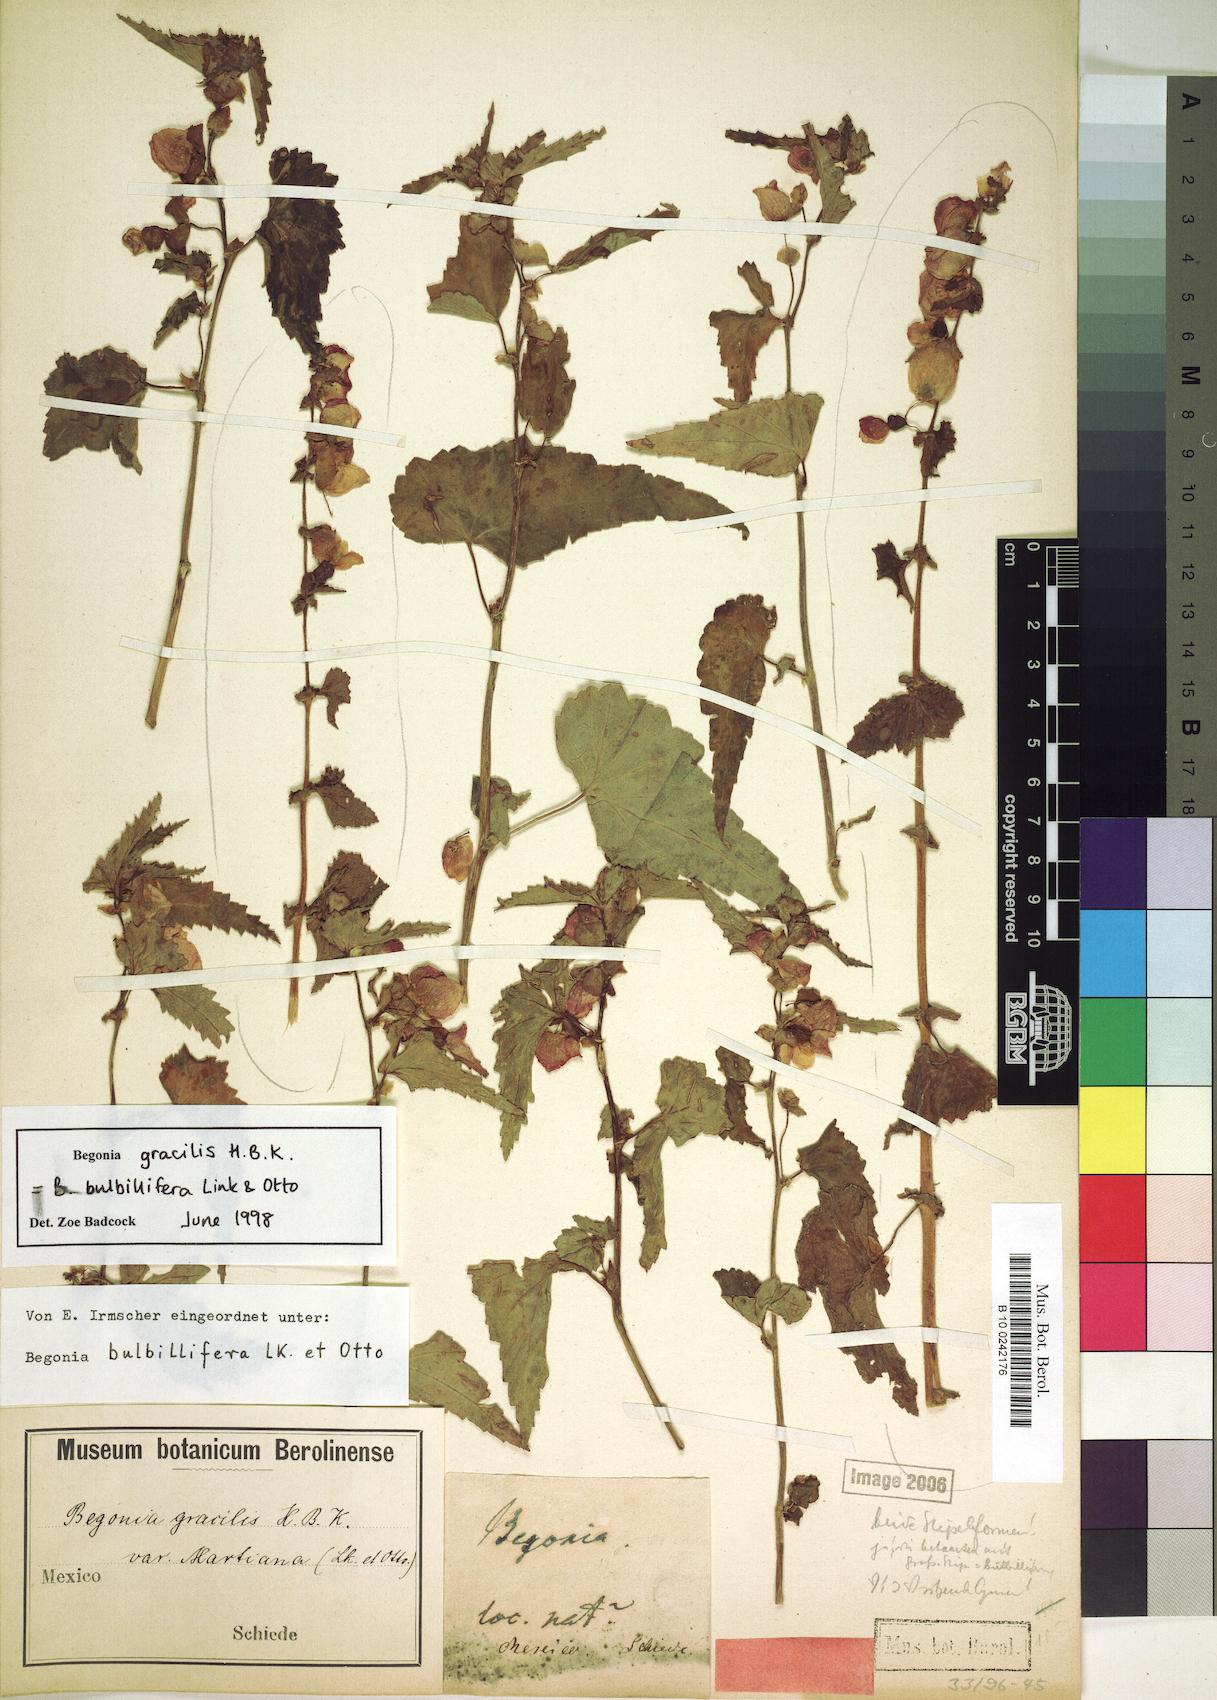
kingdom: Plantae
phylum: Tracheophyta
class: Magnoliopsida
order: Cucurbitales
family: Begoniaceae
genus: Begonia
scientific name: Begonia gracilis
